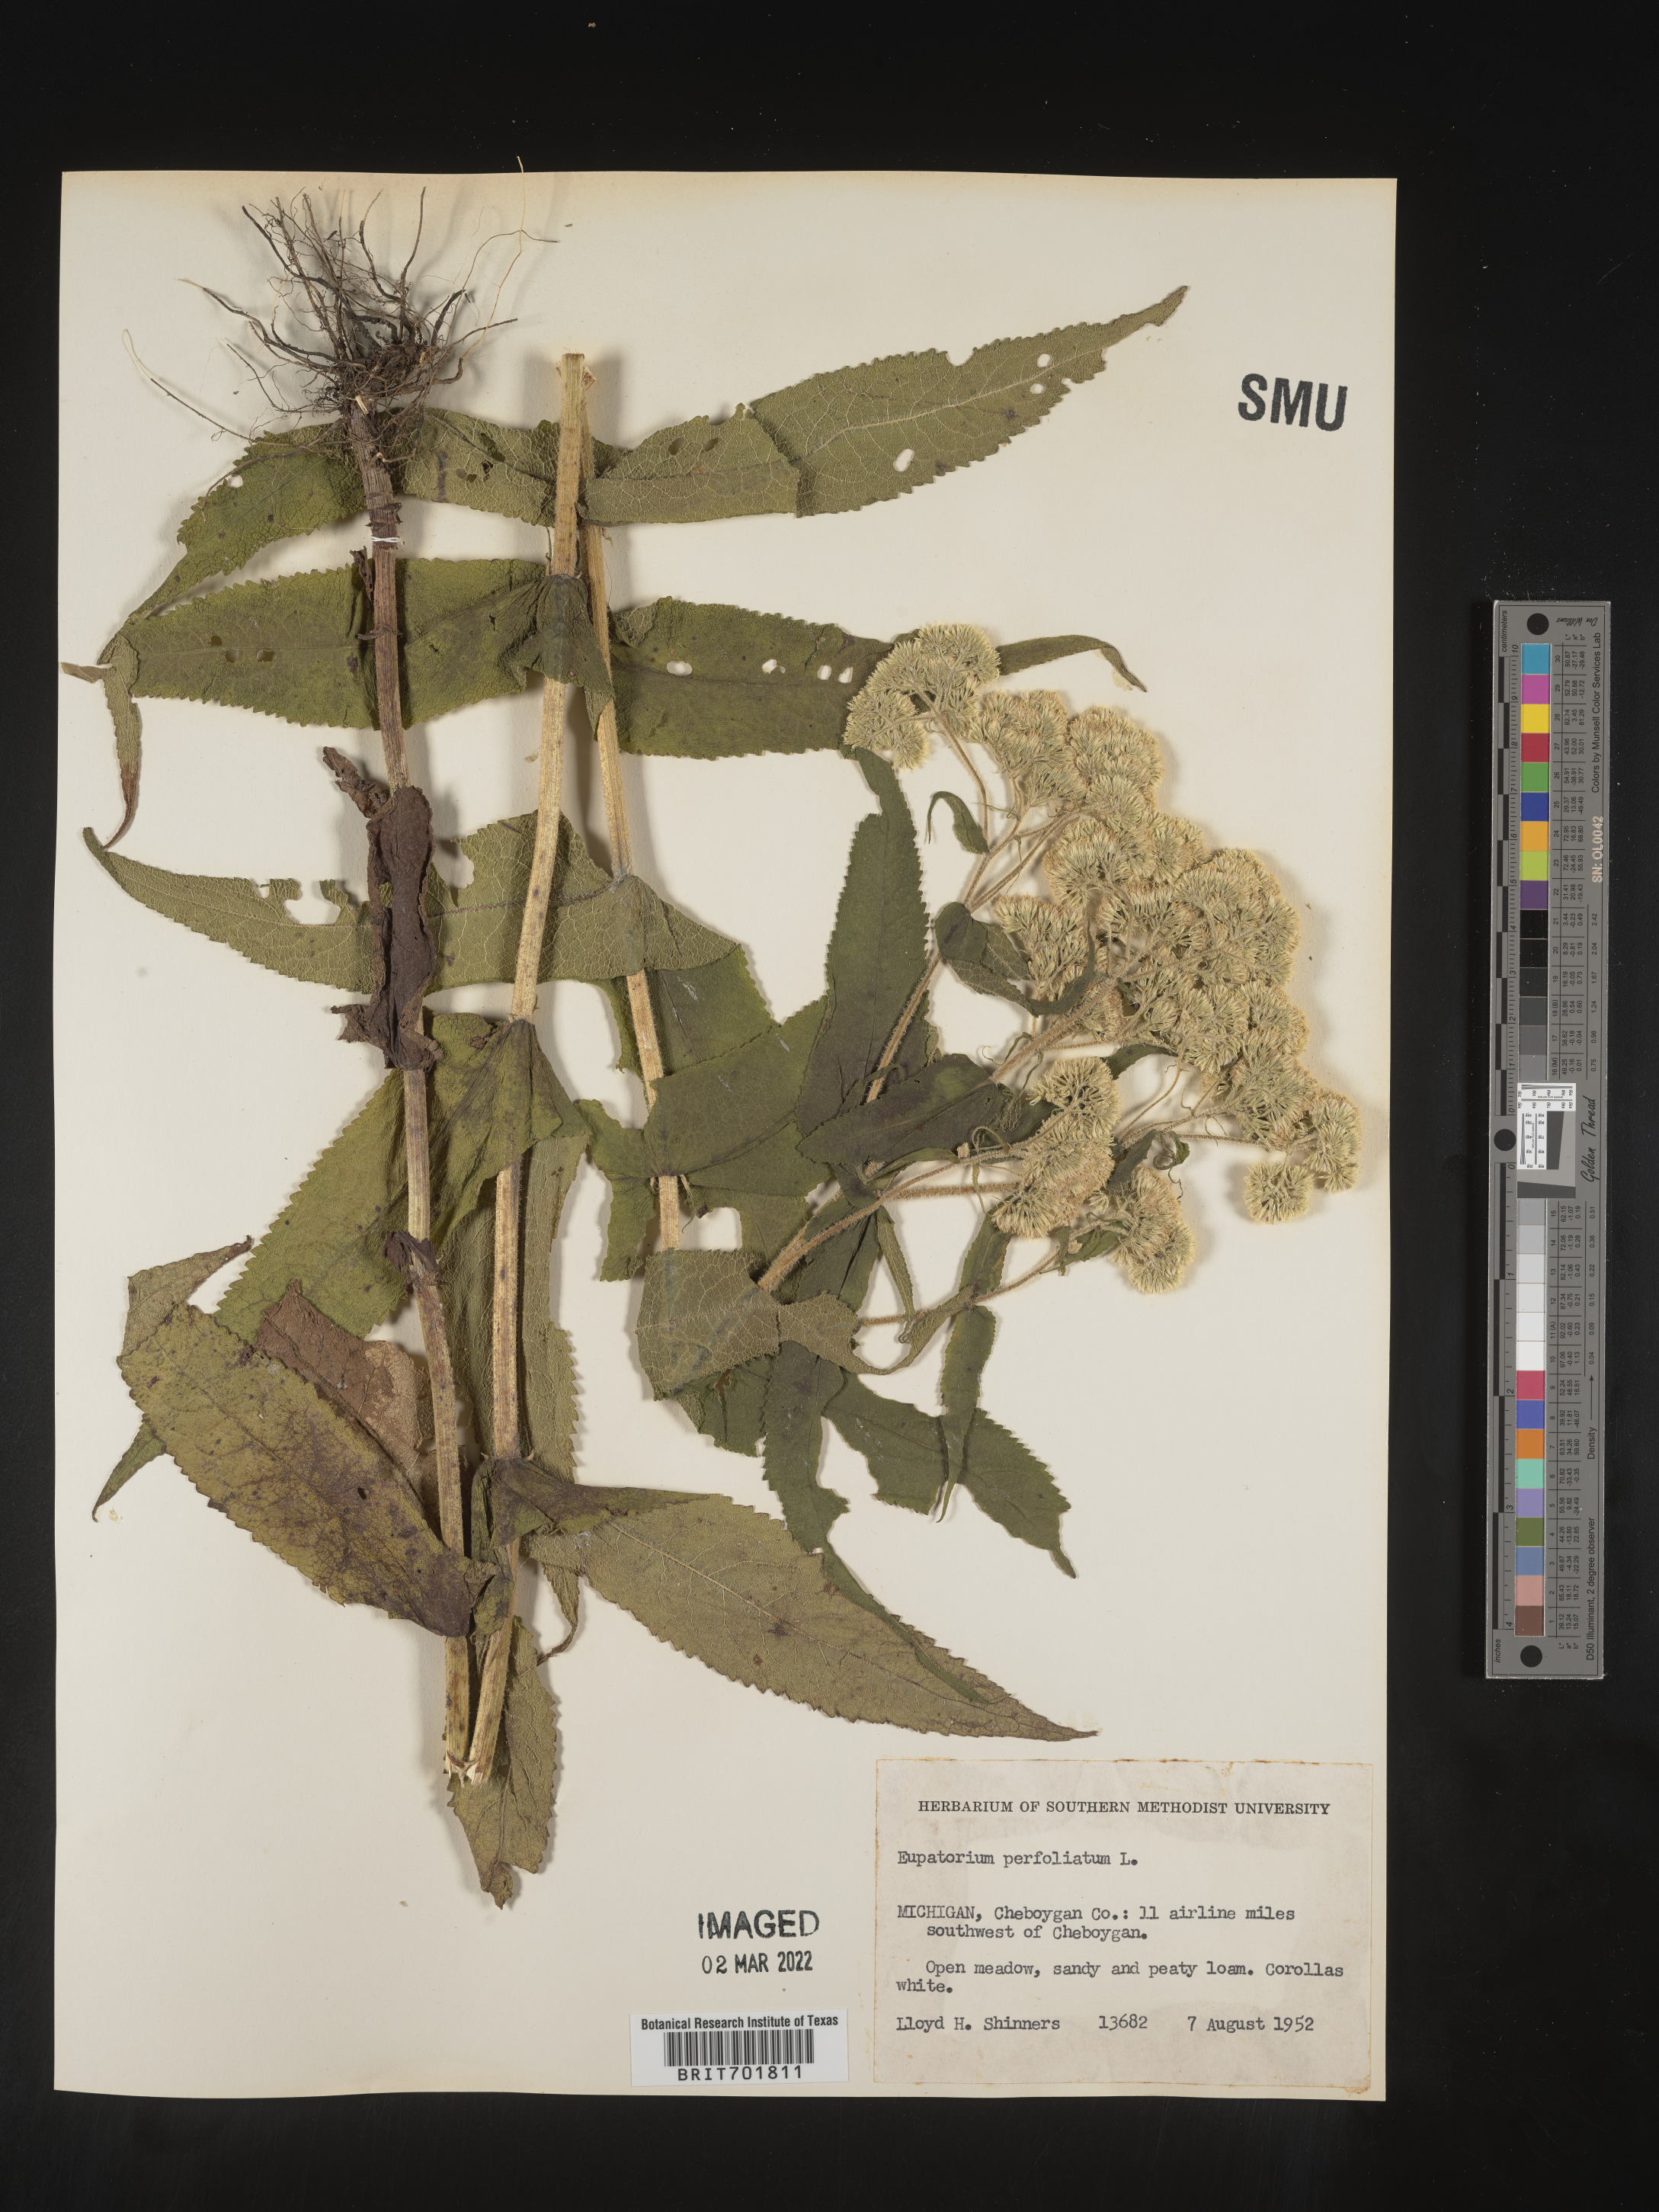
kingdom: Plantae
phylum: Tracheophyta
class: Magnoliopsida
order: Asterales
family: Asteraceae
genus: Eupatorium
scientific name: Eupatorium perfoliatum
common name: Boneset
